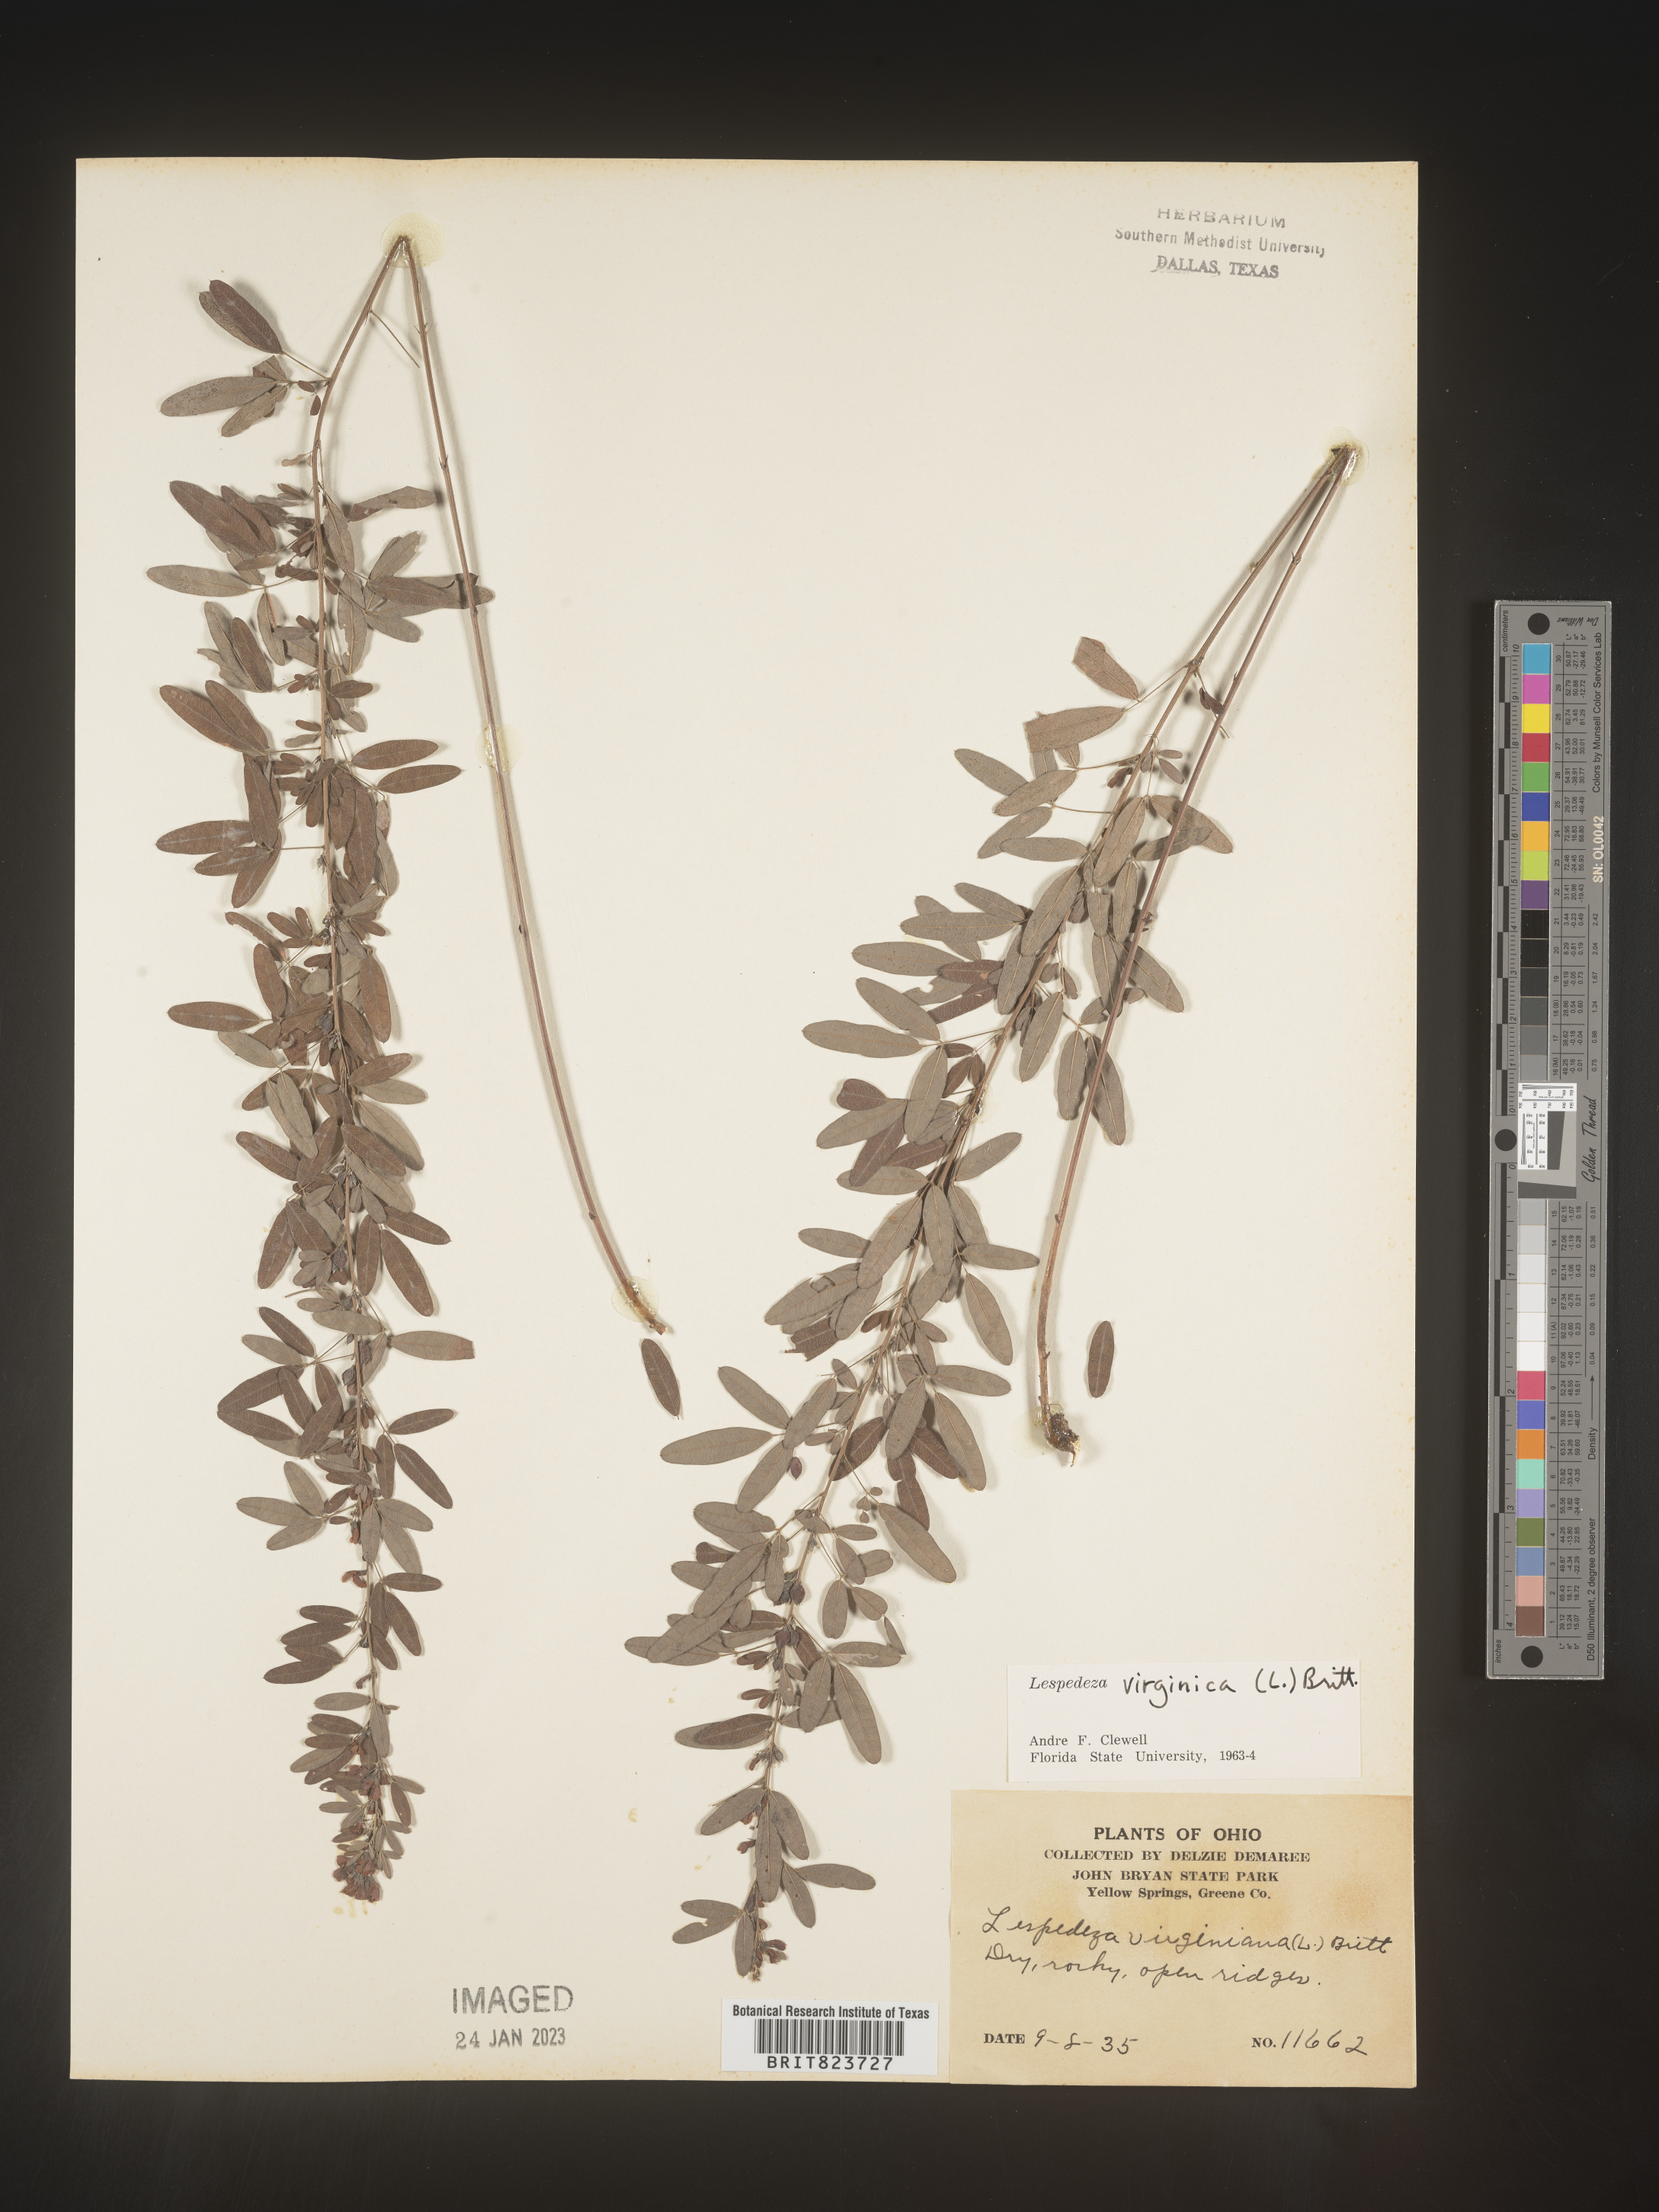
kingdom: Plantae
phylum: Tracheophyta
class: Magnoliopsida
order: Fabales
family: Fabaceae
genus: Lespedeza
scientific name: Lespedeza virginica
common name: Slender bush-clover
